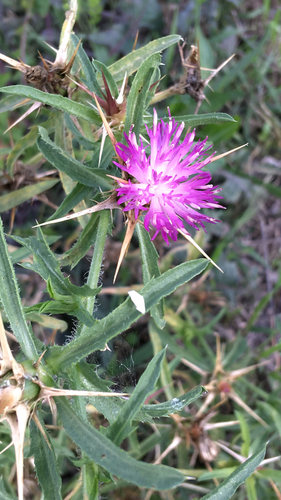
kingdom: Plantae
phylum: Tracheophyta
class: Magnoliopsida
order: Asterales
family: Asteraceae
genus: Centaurea
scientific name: Centaurea calcitrapa
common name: Red star-thistle
